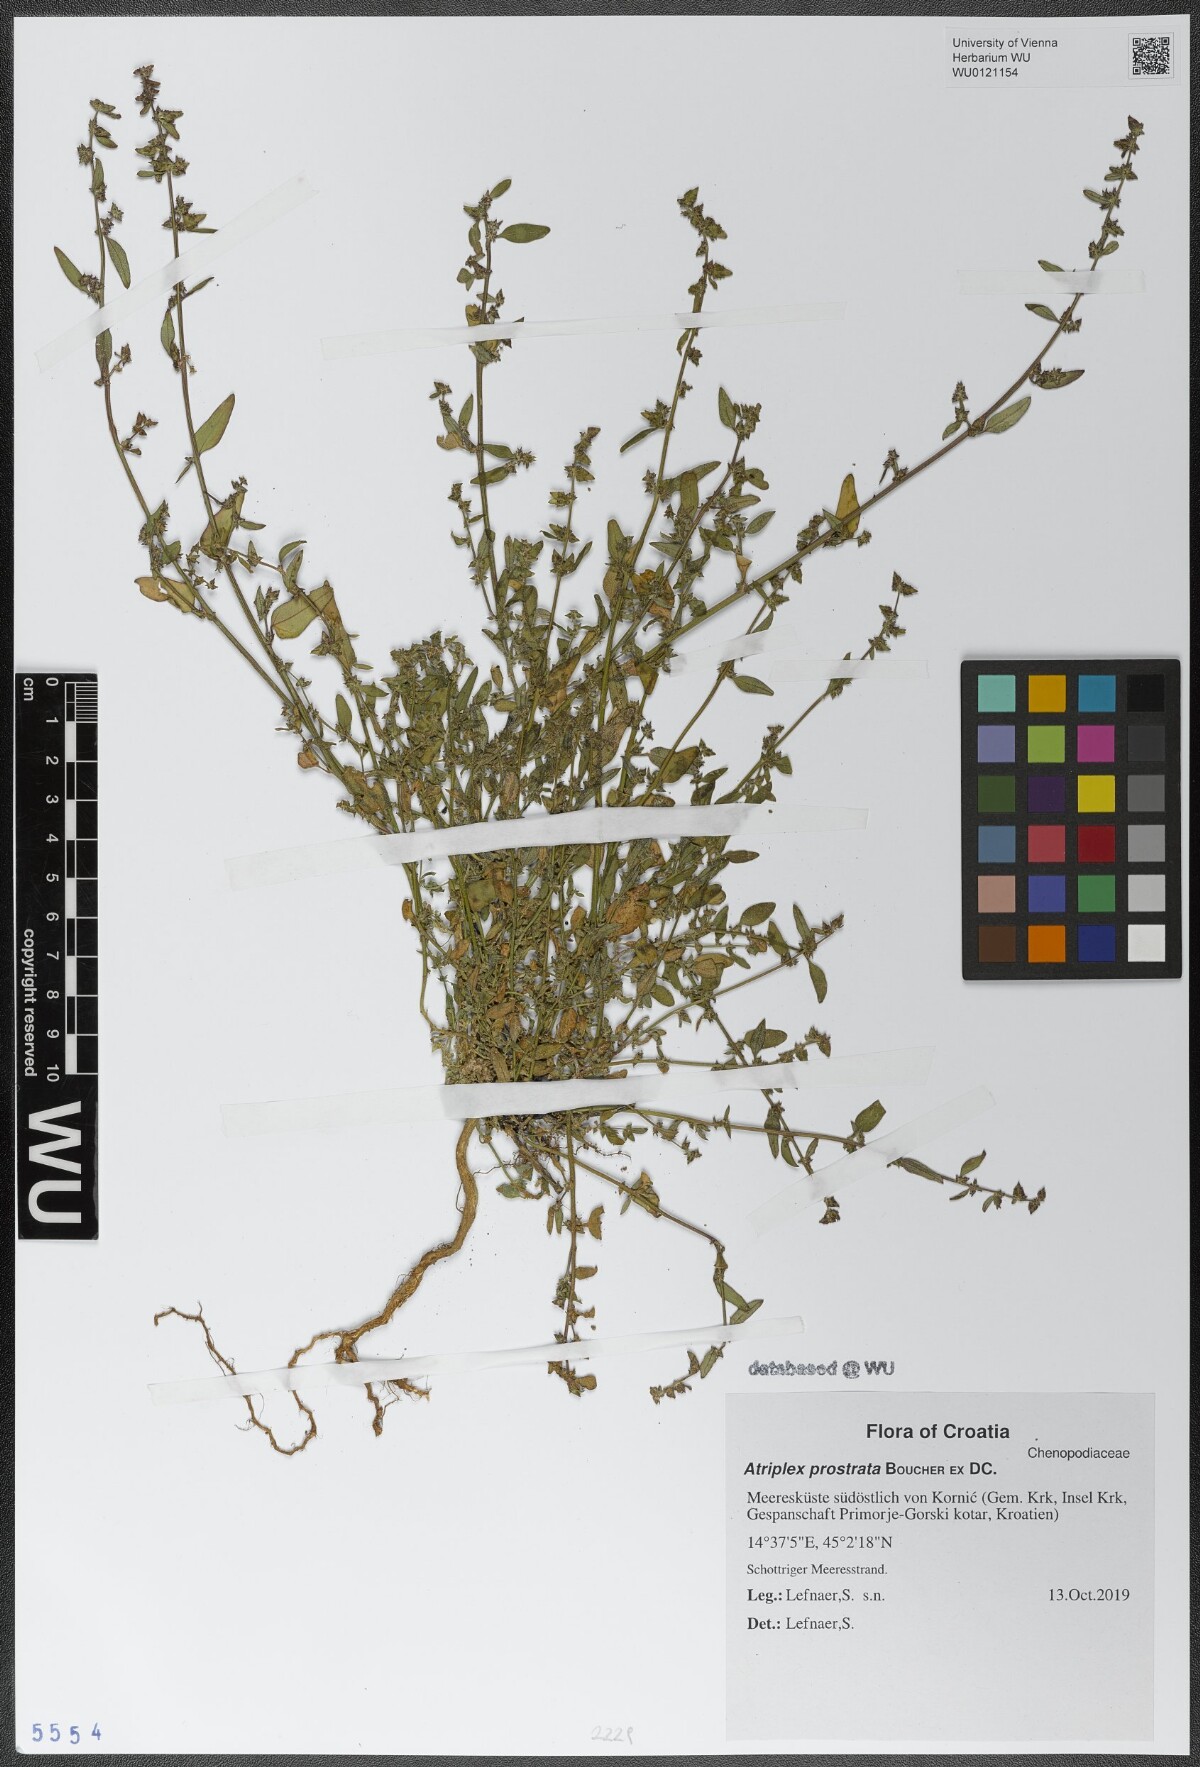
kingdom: Plantae
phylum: Tracheophyta
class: Magnoliopsida
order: Caryophyllales
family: Amaranthaceae
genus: Atriplex
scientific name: Atriplex prostrata
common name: Spear-leaved orache
